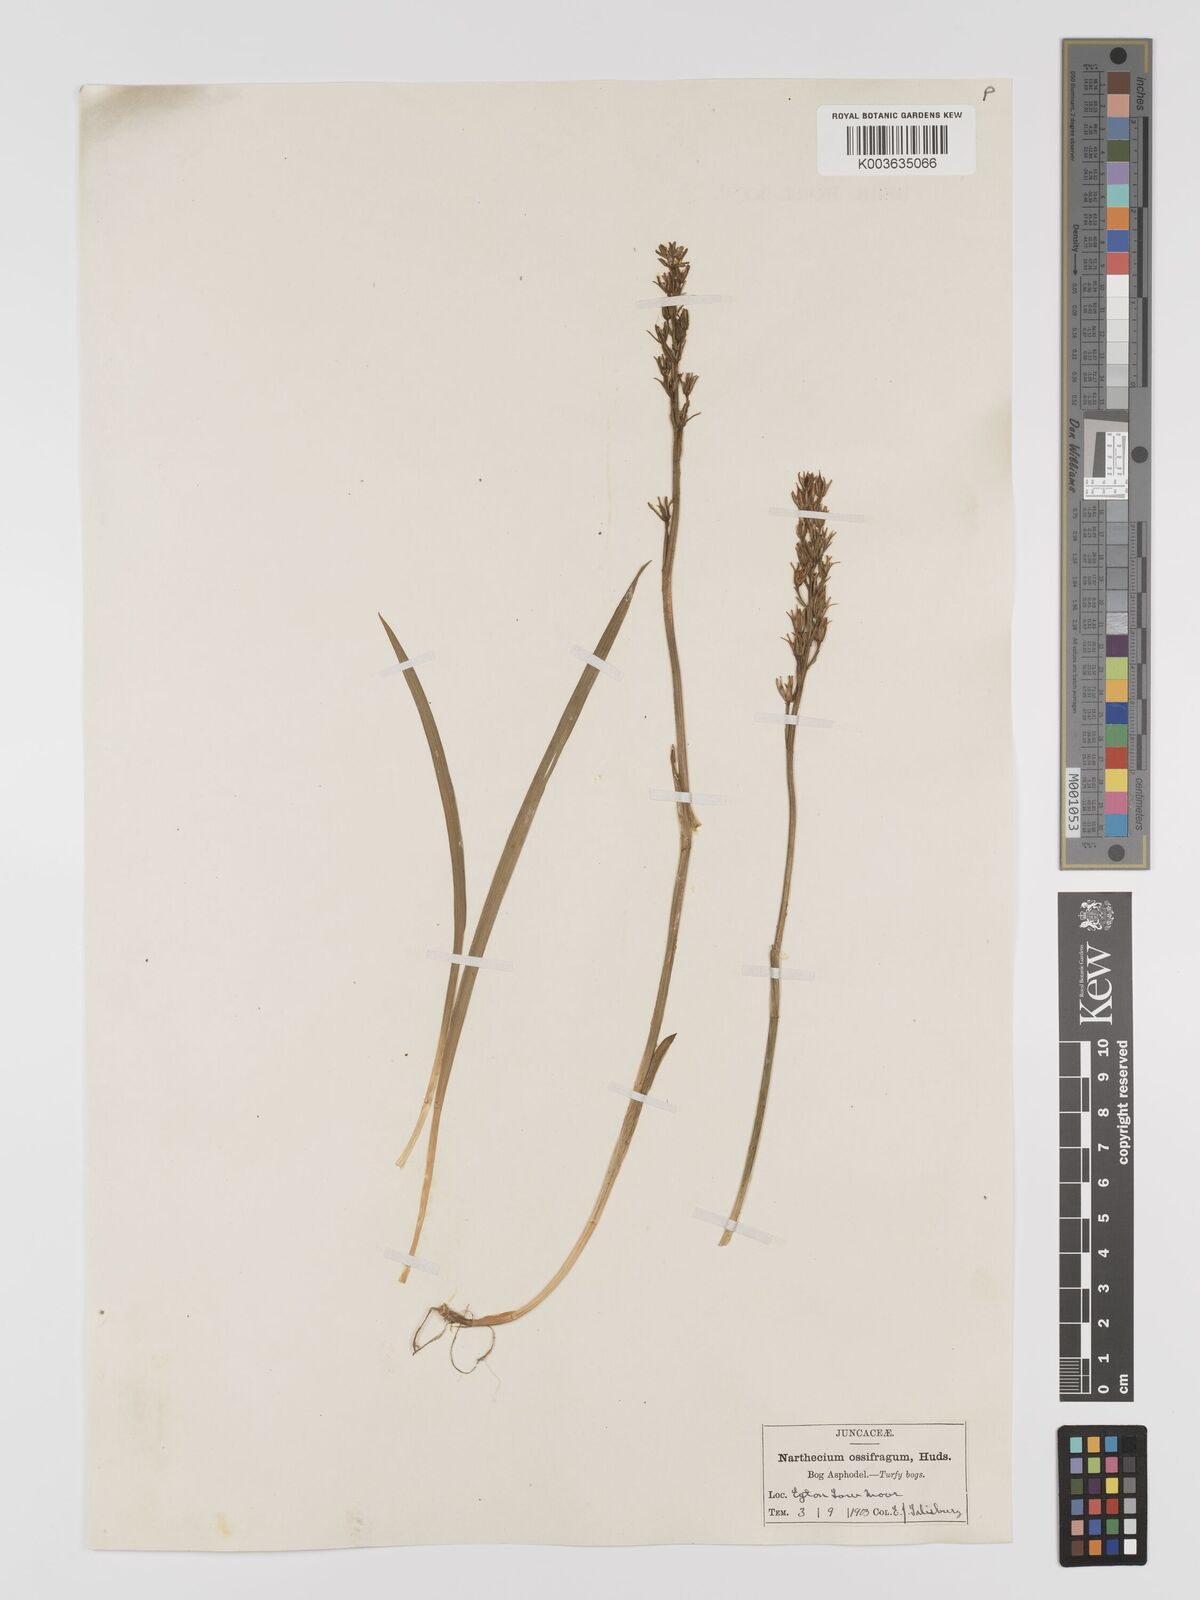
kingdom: Plantae
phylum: Tracheophyta
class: Liliopsida
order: Dioscoreales
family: Nartheciaceae
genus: Narthecium
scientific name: Narthecium
